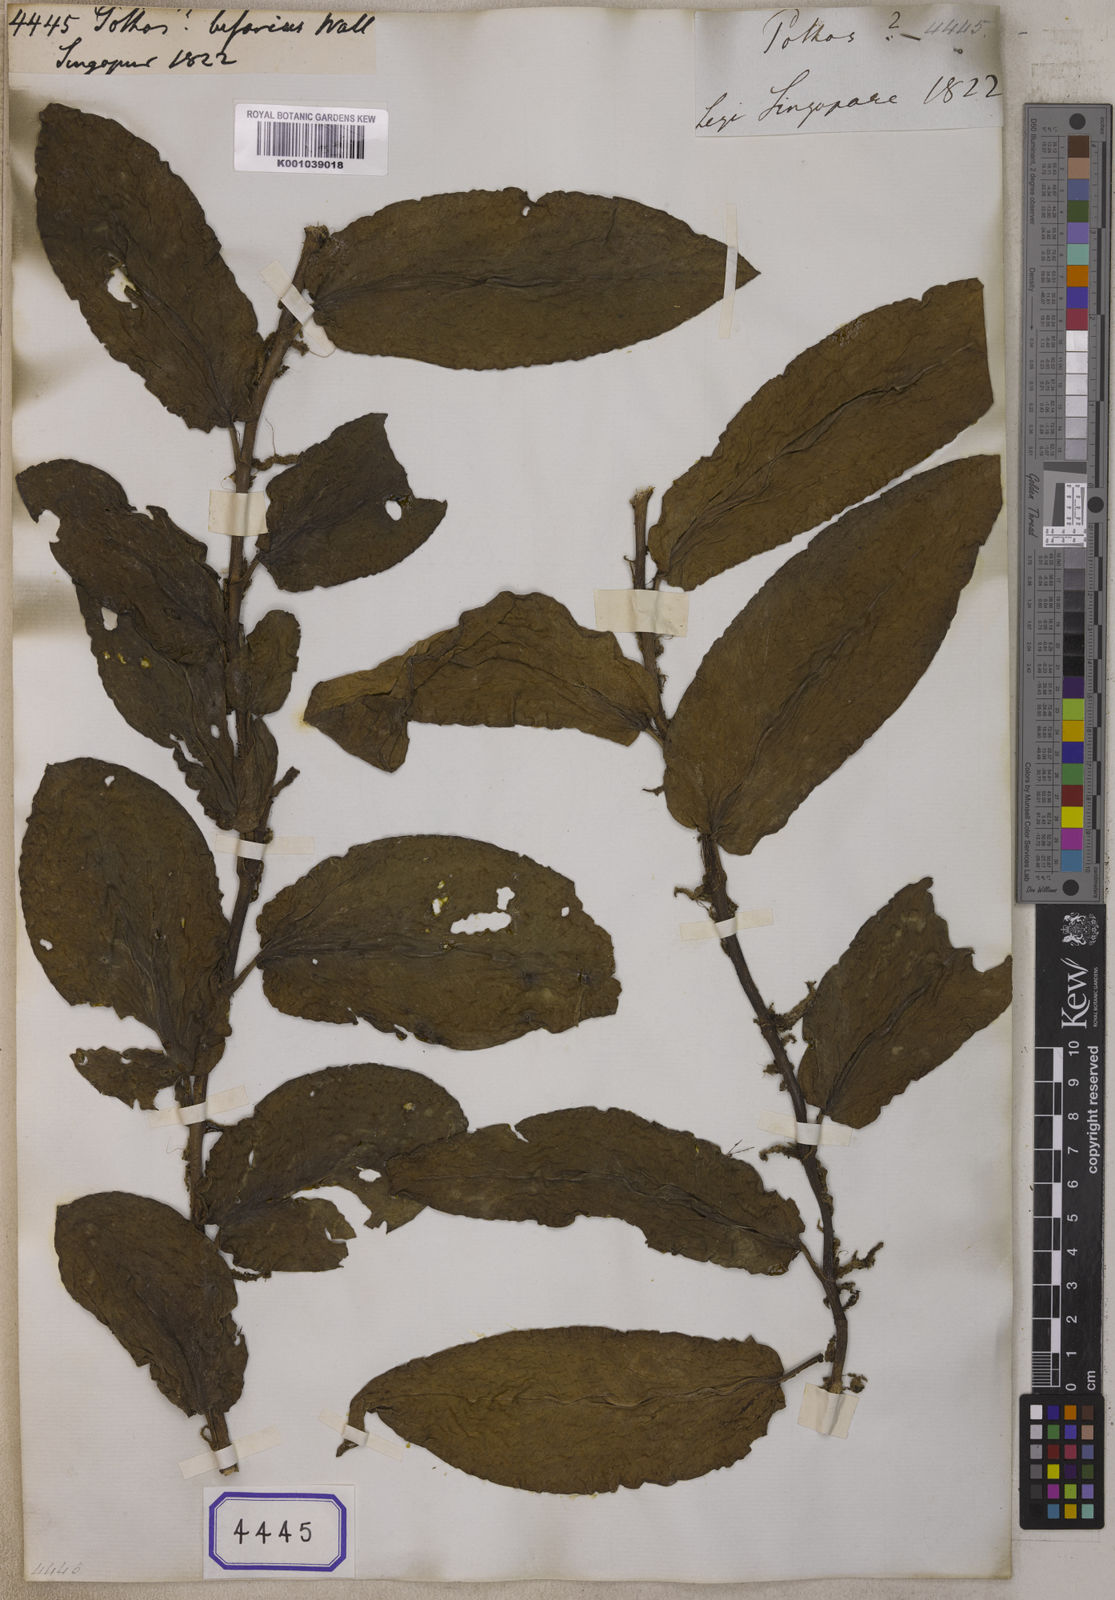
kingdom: Plantae
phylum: Tracheophyta
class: Liliopsida
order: Alismatales
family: Araceae
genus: Pothos
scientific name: Pothos
